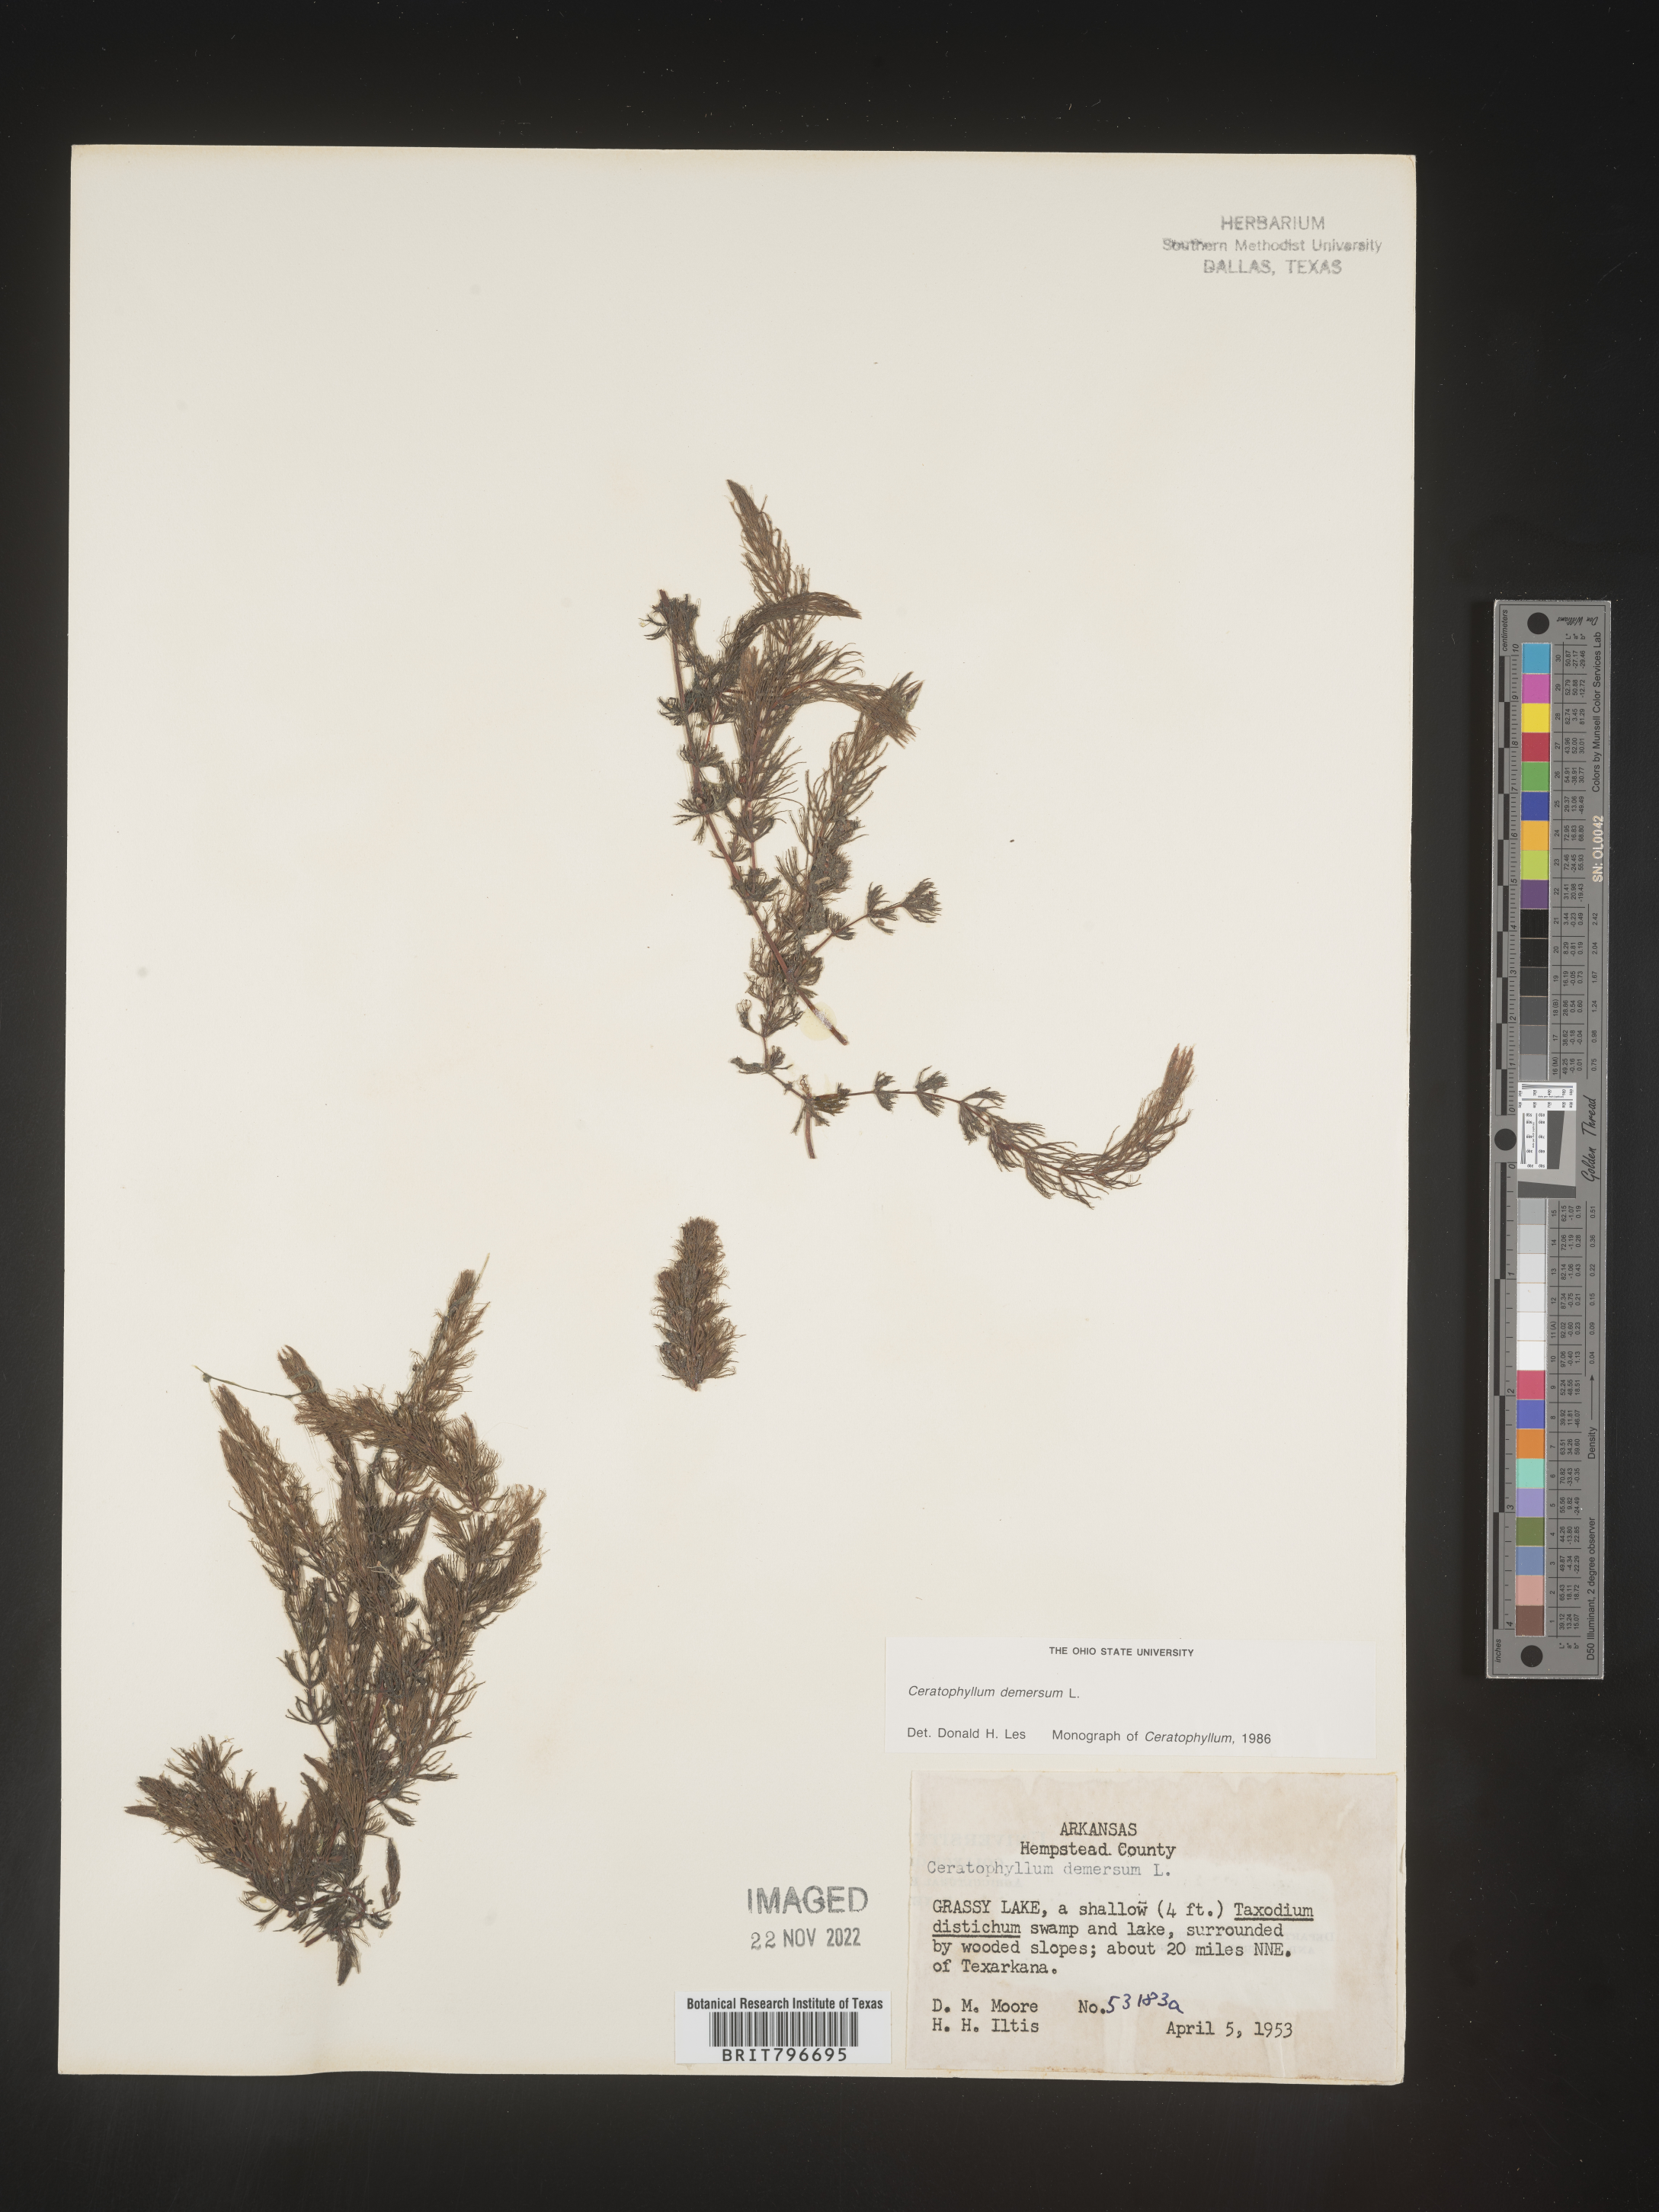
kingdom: Plantae
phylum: Tracheophyta
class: Magnoliopsida
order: Ceratophyllales
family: Ceratophyllaceae
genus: Ceratophyllum
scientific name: Ceratophyllum demersum
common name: Rigid hornwort
